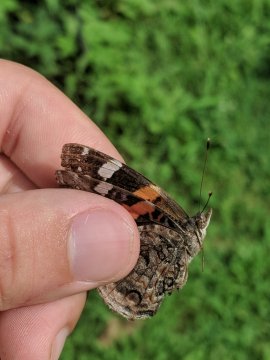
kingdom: Animalia
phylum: Arthropoda
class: Insecta
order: Lepidoptera
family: Nymphalidae
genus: Vanessa
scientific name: Vanessa atalanta
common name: Red Admiral
